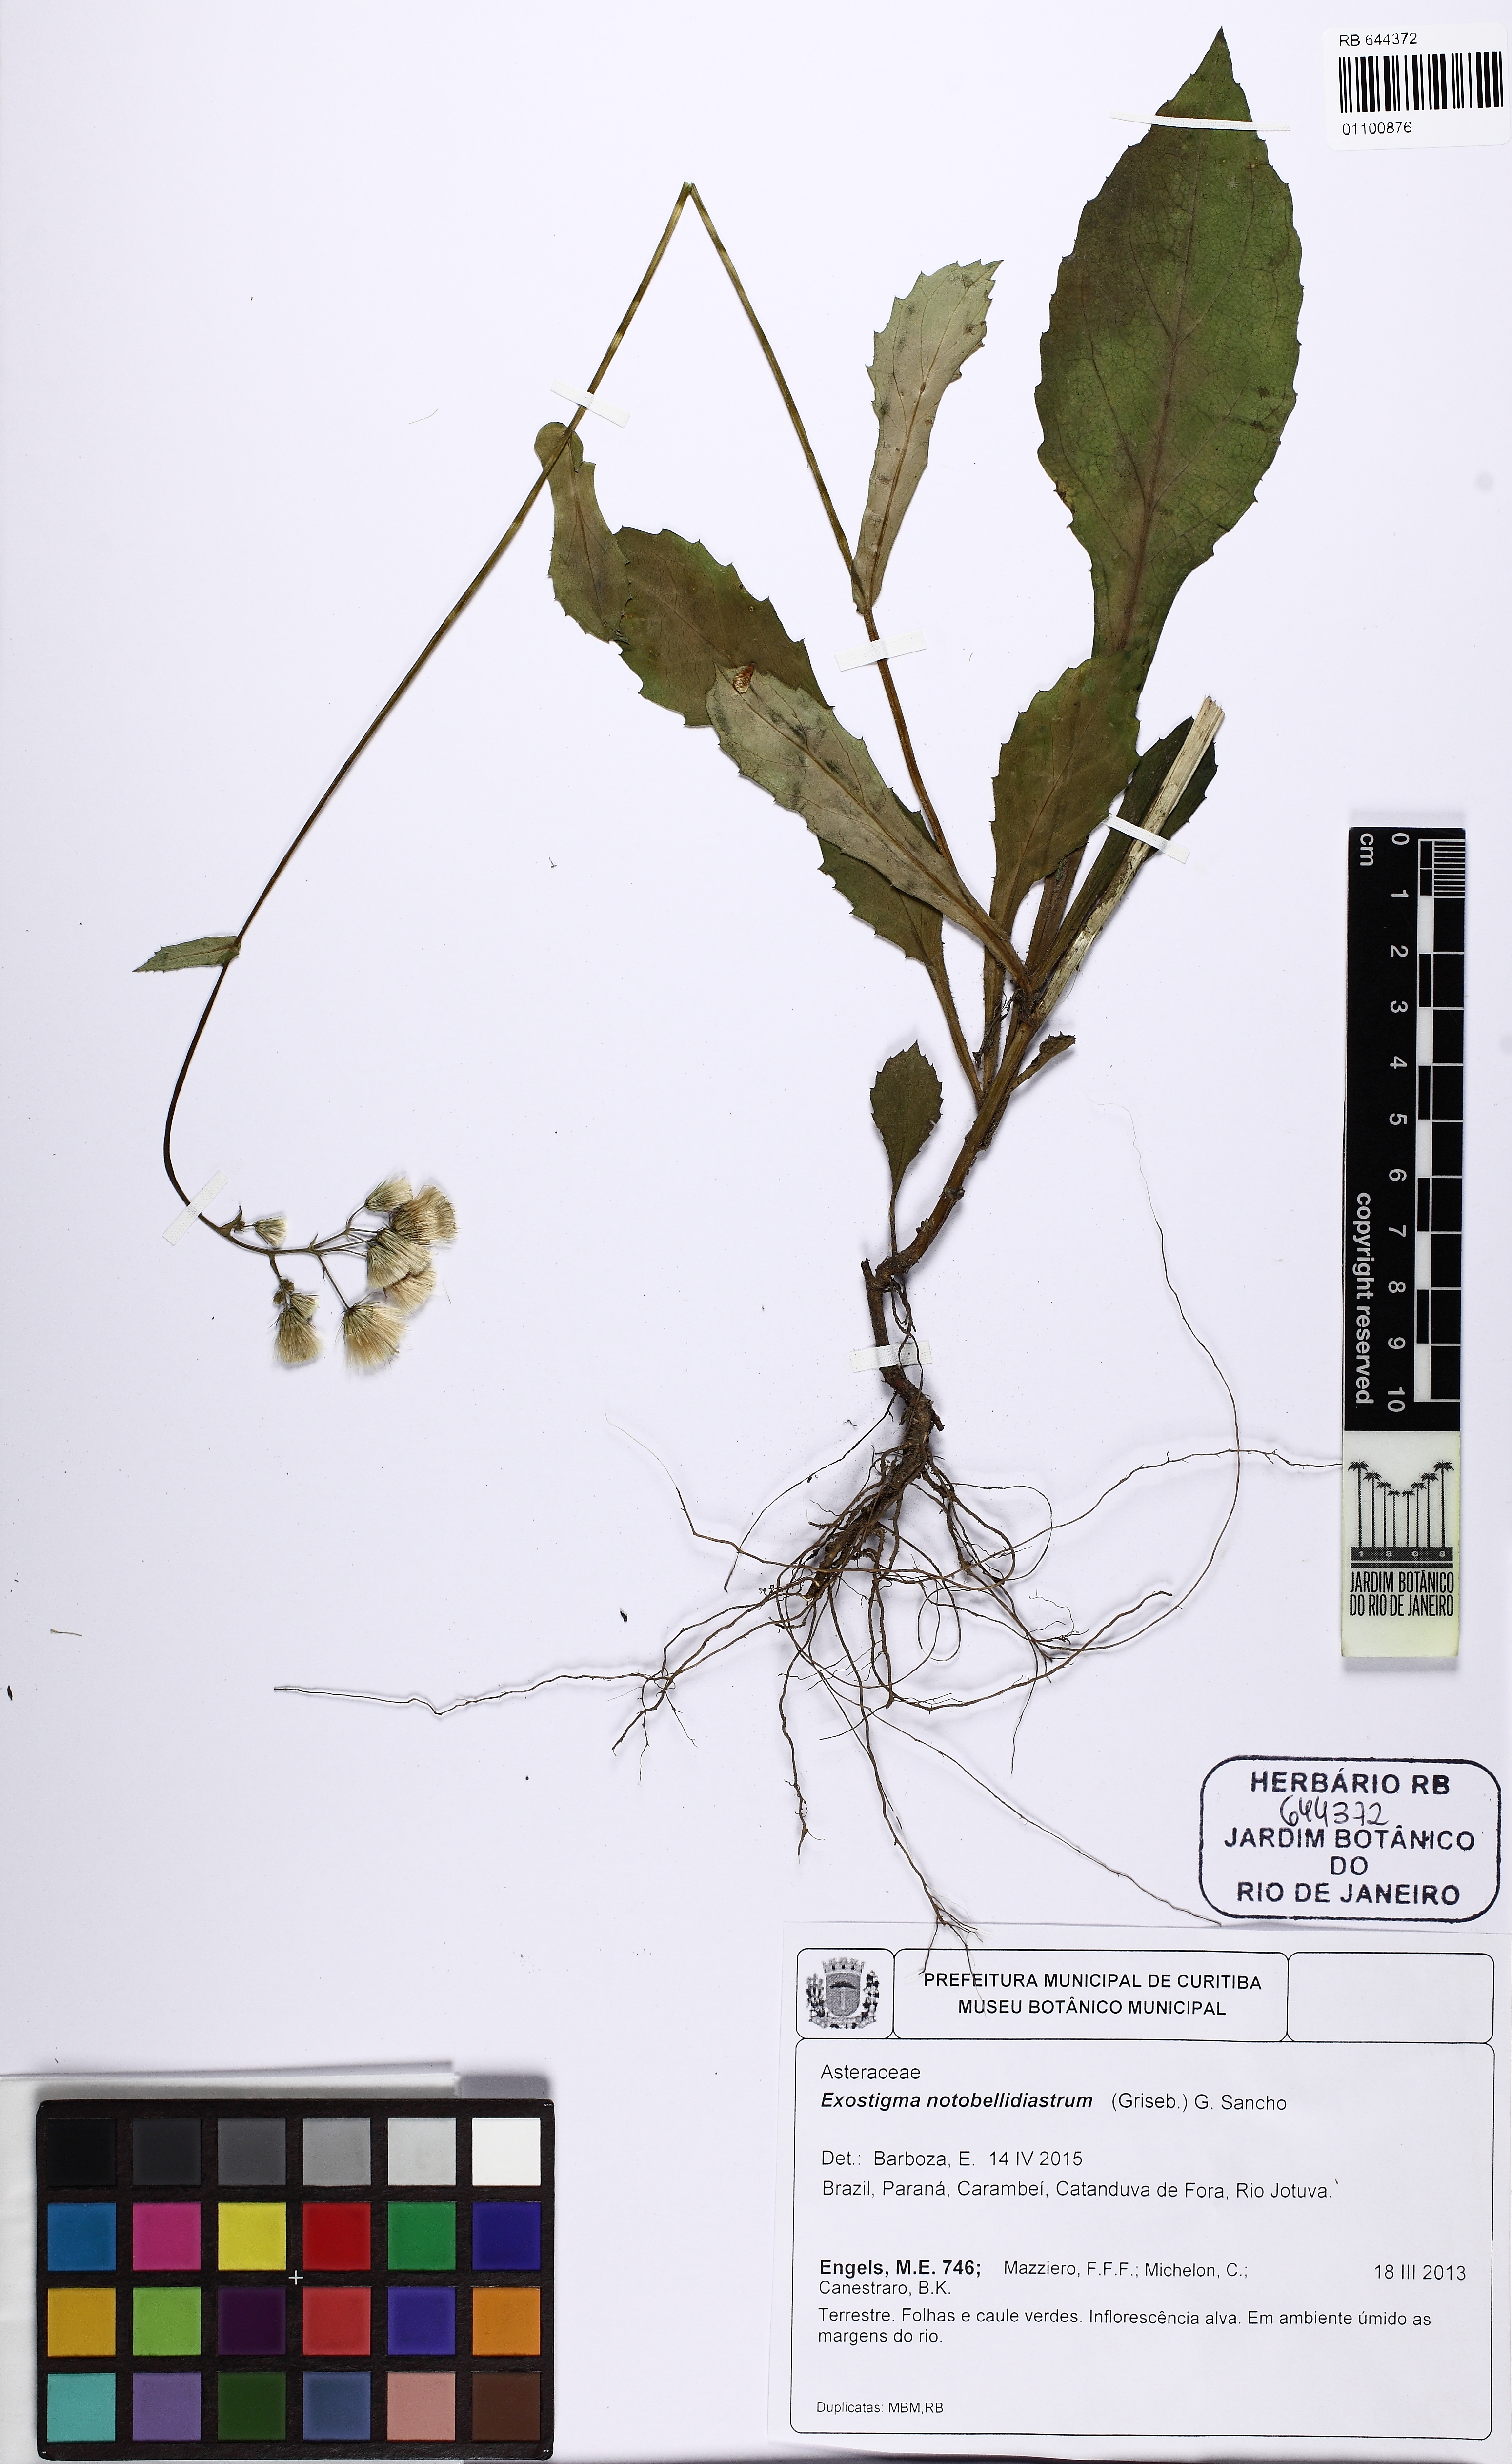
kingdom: Plantae
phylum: Tracheophyta
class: Magnoliopsida
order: Asterales
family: Asteraceae
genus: Exostigma
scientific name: Exostigma notobellidiastrum
